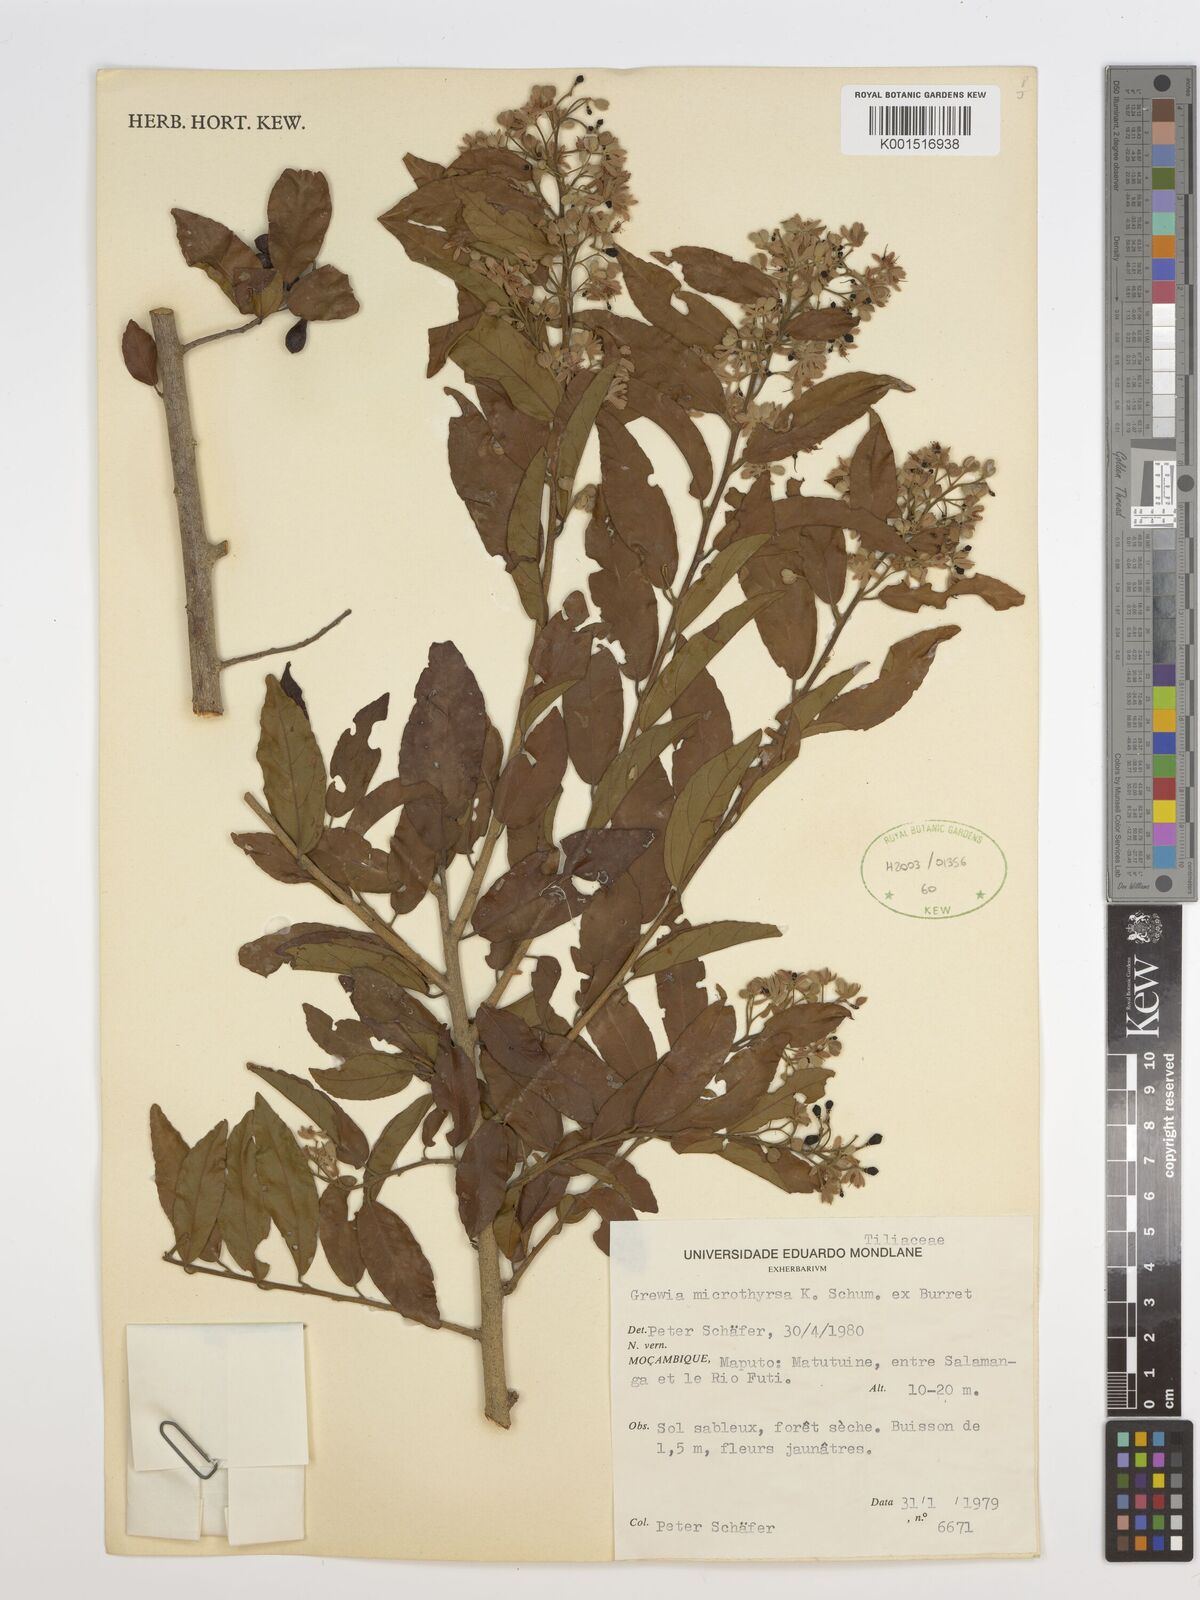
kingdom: Plantae
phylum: Tracheophyta
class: Magnoliopsida
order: Malvales
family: Malvaceae
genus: Microcos
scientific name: Microcos microthyrsa
